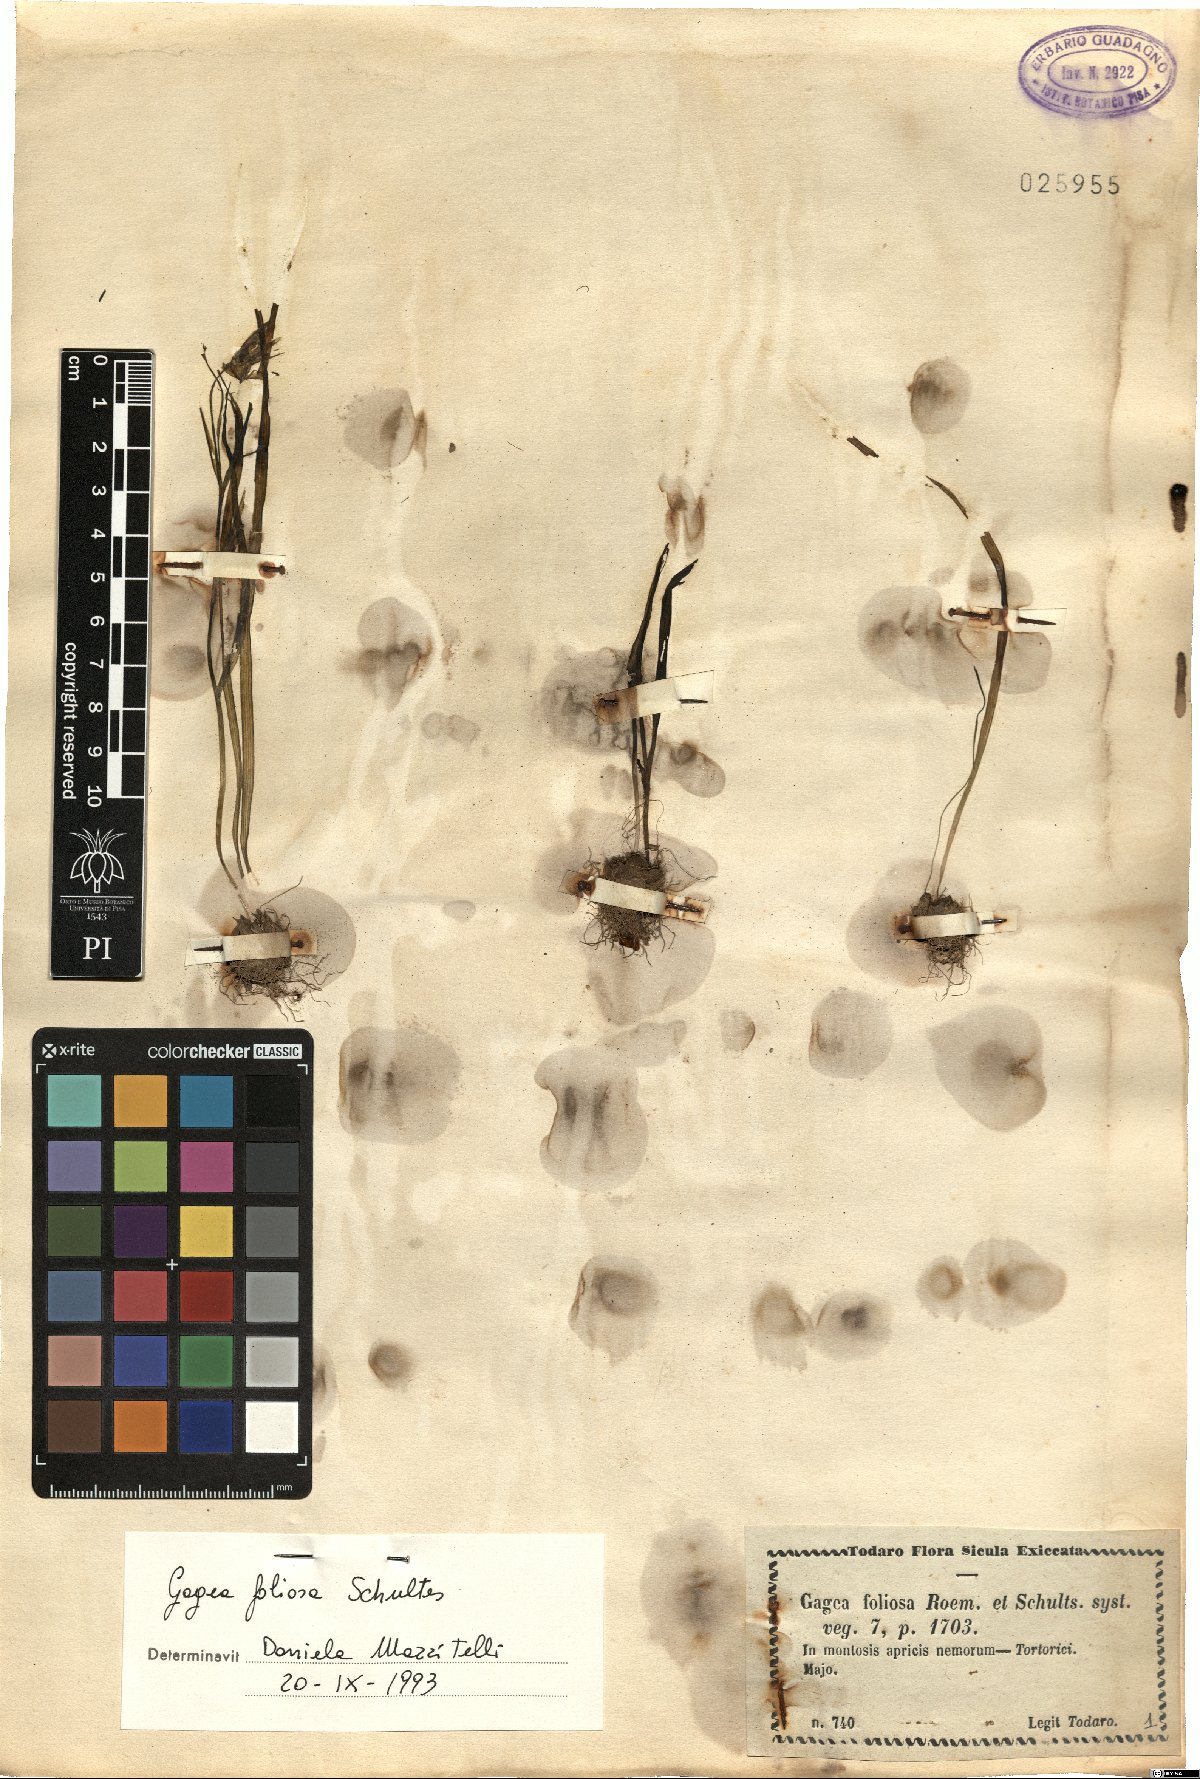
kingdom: Plantae
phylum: Tracheophyta
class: Liliopsida
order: Liliales
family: Liliaceae
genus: Gagea
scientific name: Gagea foliosa
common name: Leafy gagea
